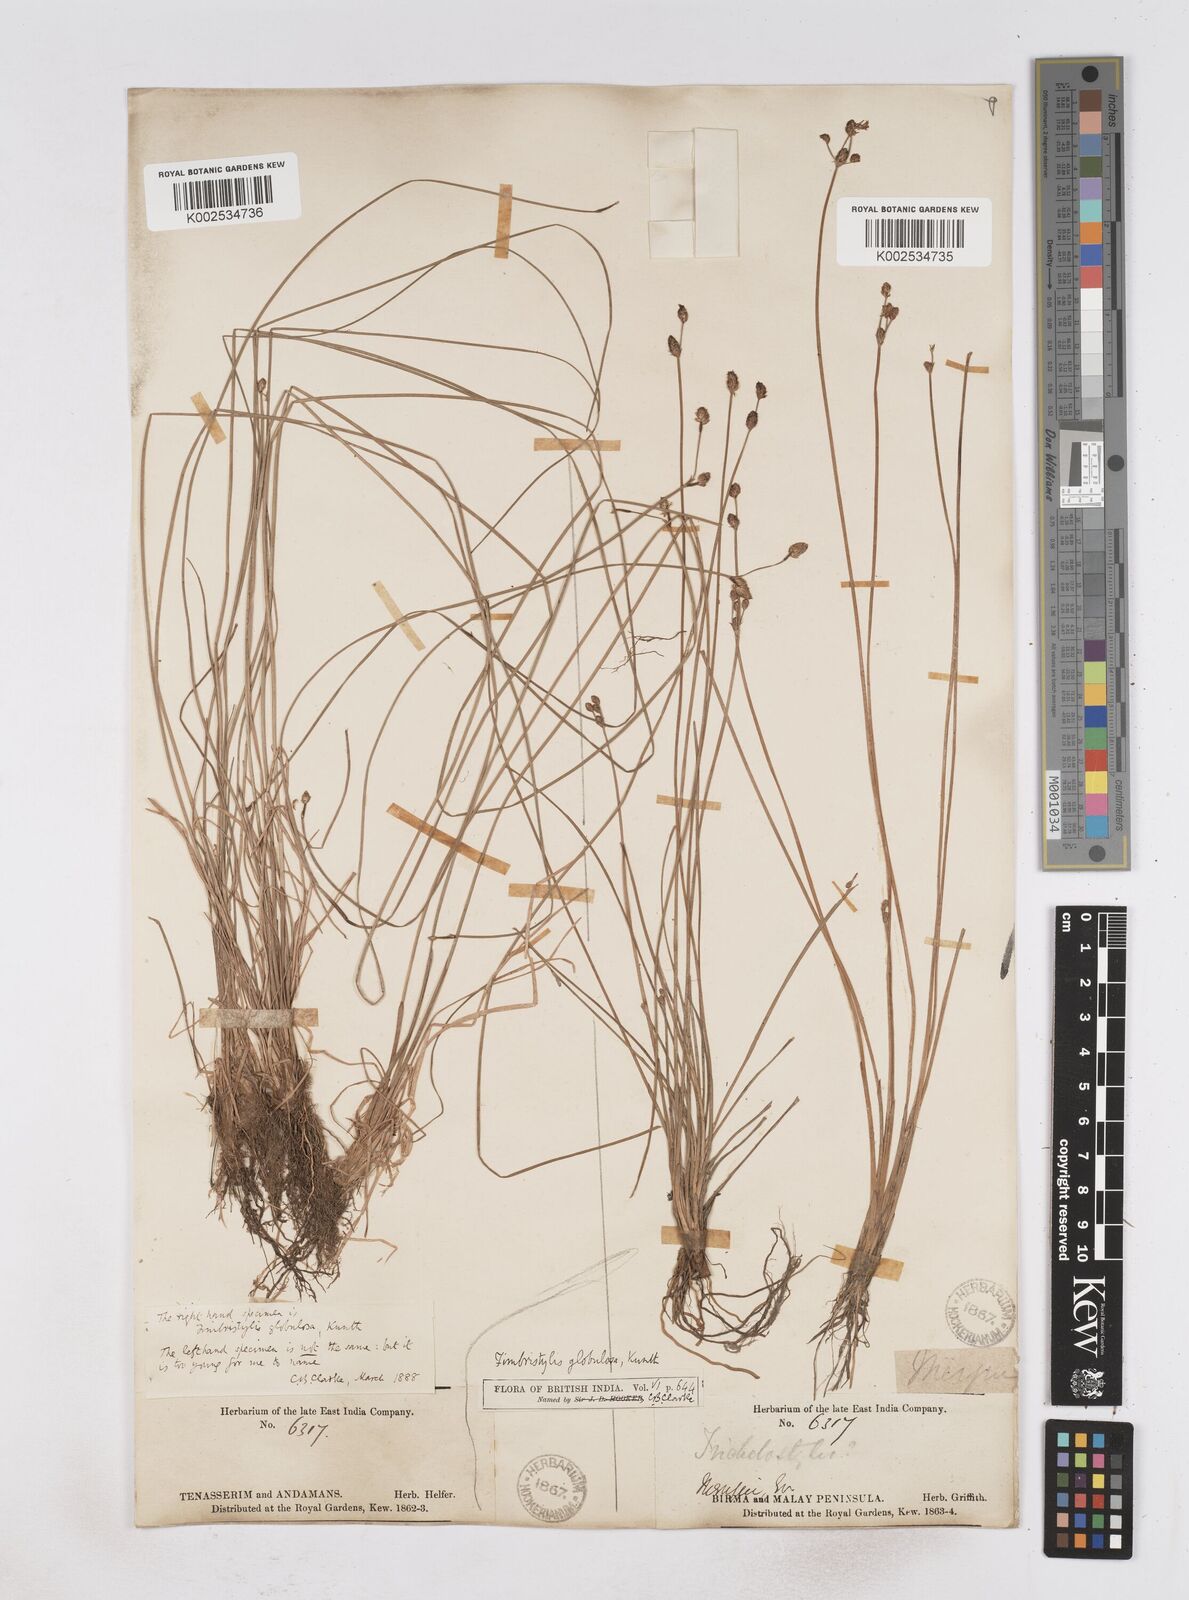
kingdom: Plantae
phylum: Tracheophyta
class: Liliopsida
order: Poales
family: Cyperaceae
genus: Fimbristylis
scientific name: Fimbristylis umbellaris
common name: Globular fimbristylis
